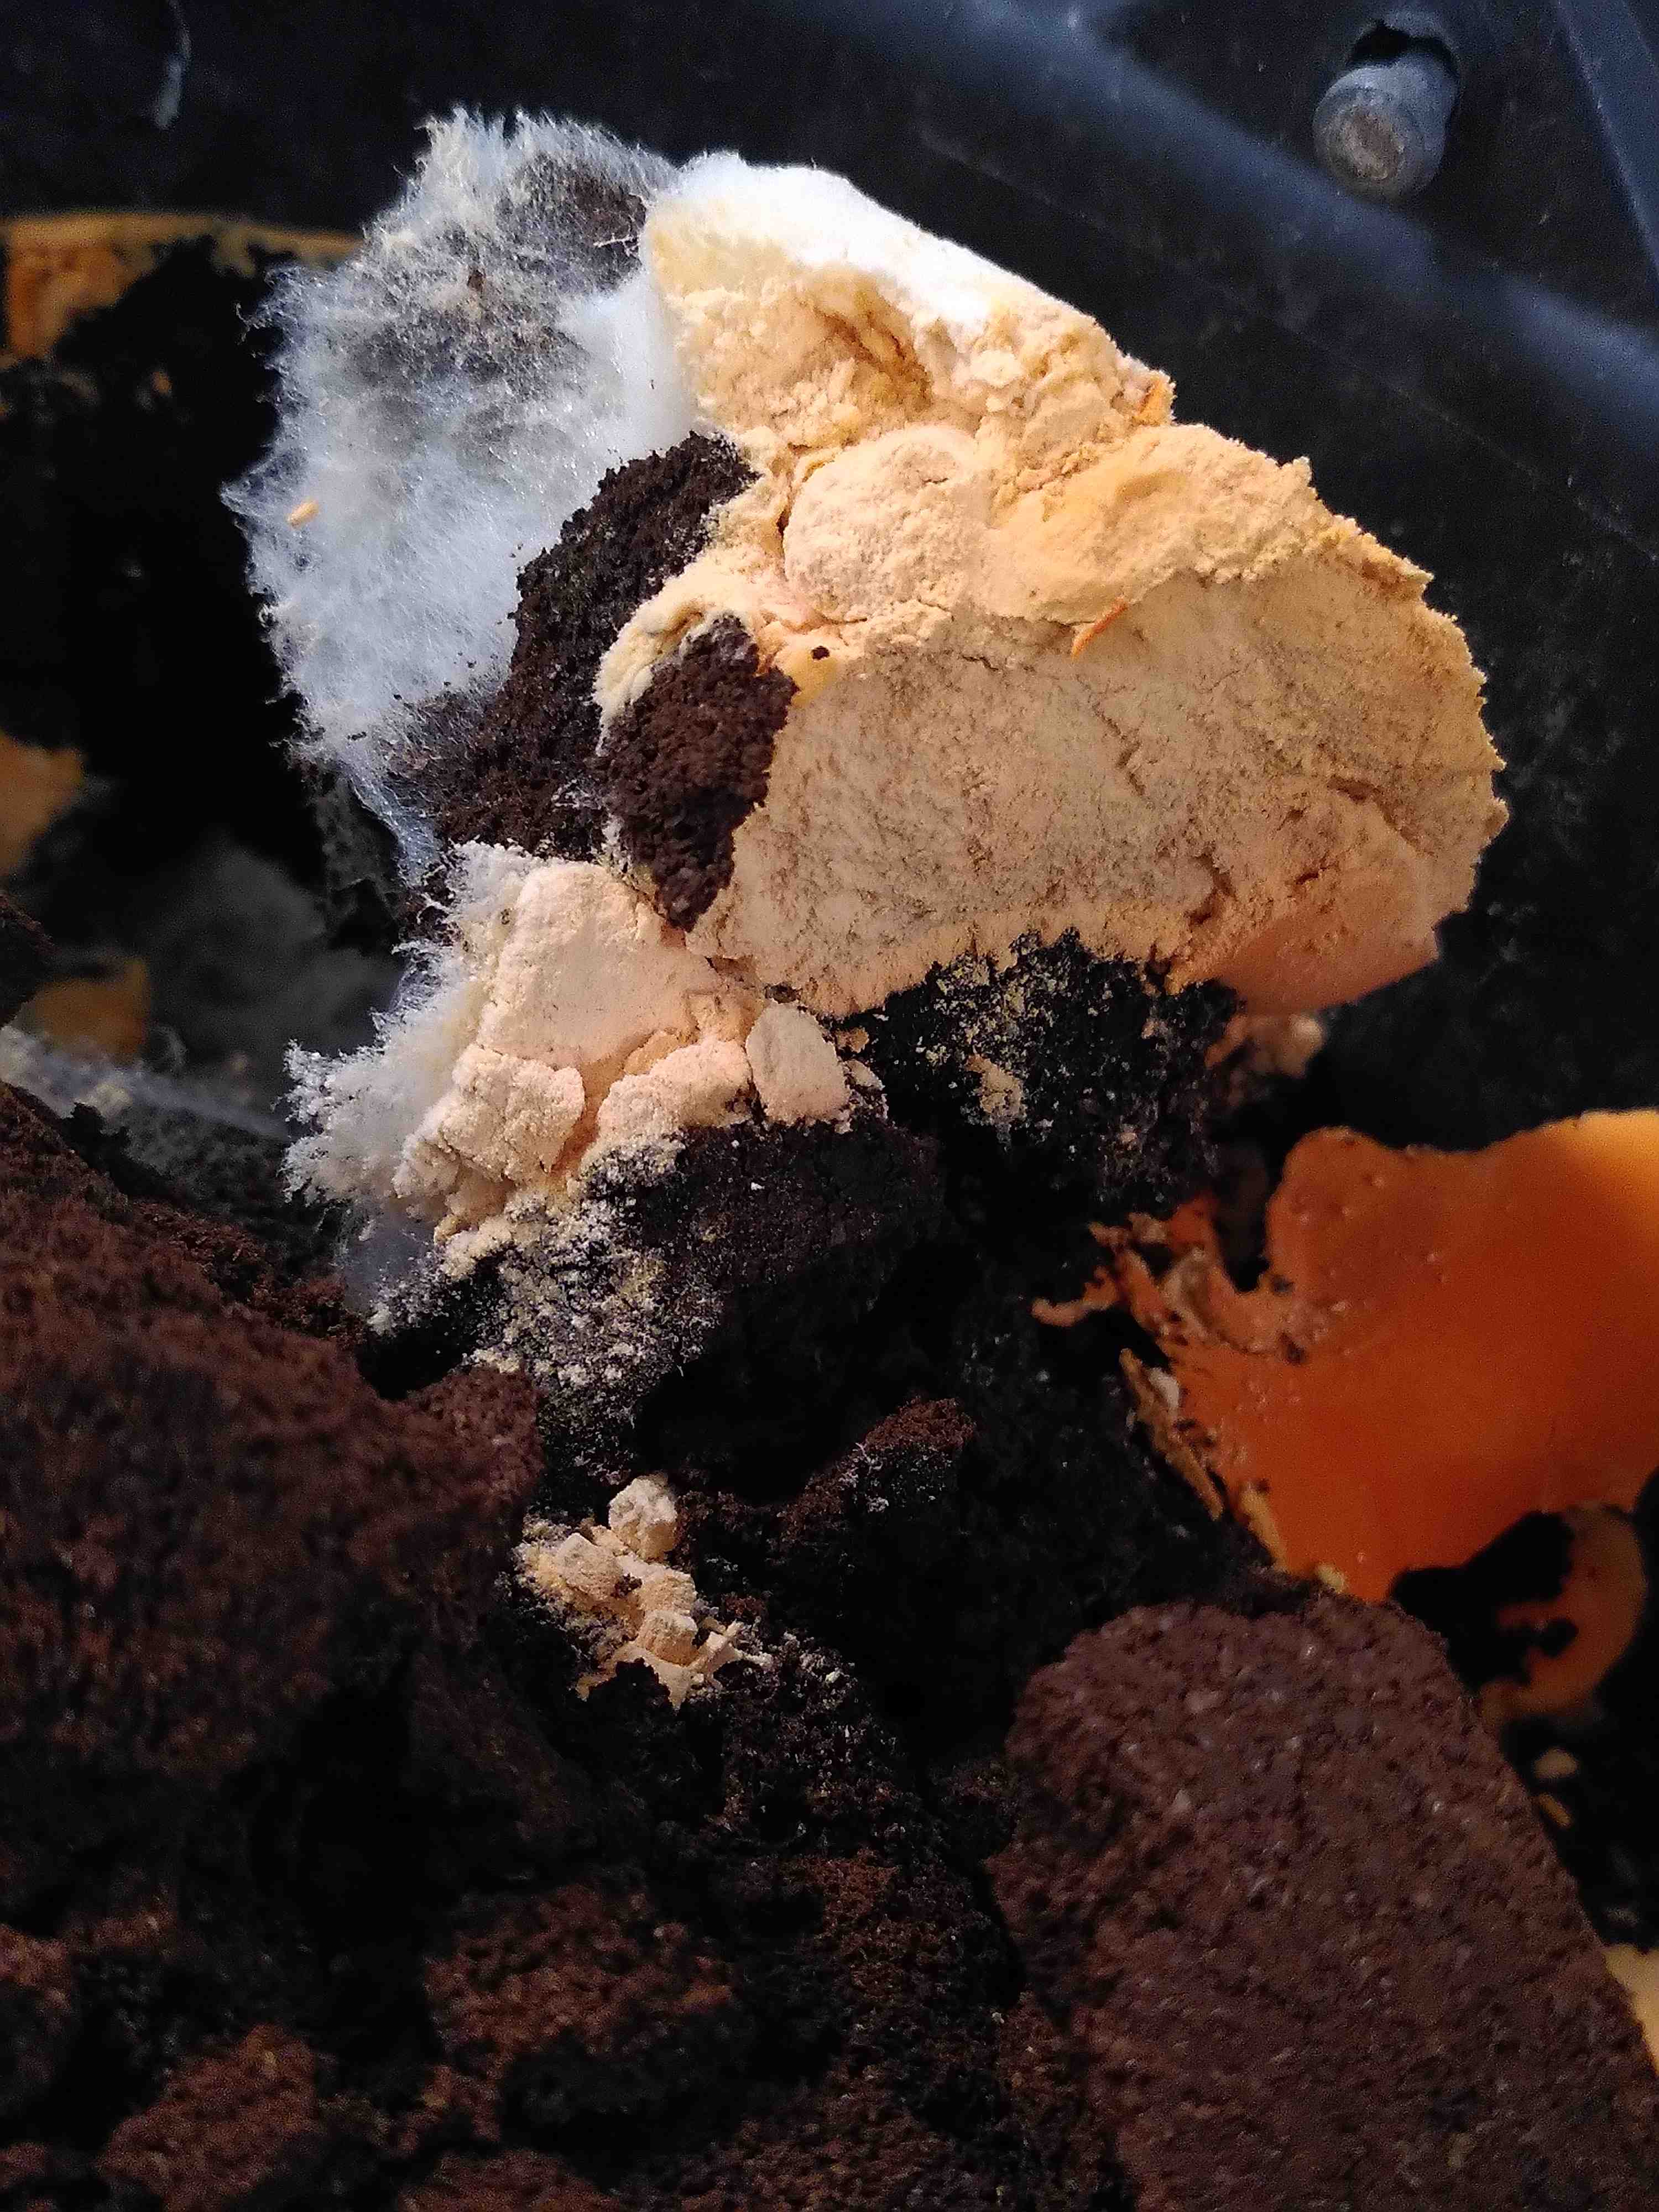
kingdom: Fungi
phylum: Ascomycota
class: Sordariomycetes
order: Sordariales
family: Chaetomiaceae
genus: Myceliophthora
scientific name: Myceliophthora lutea
